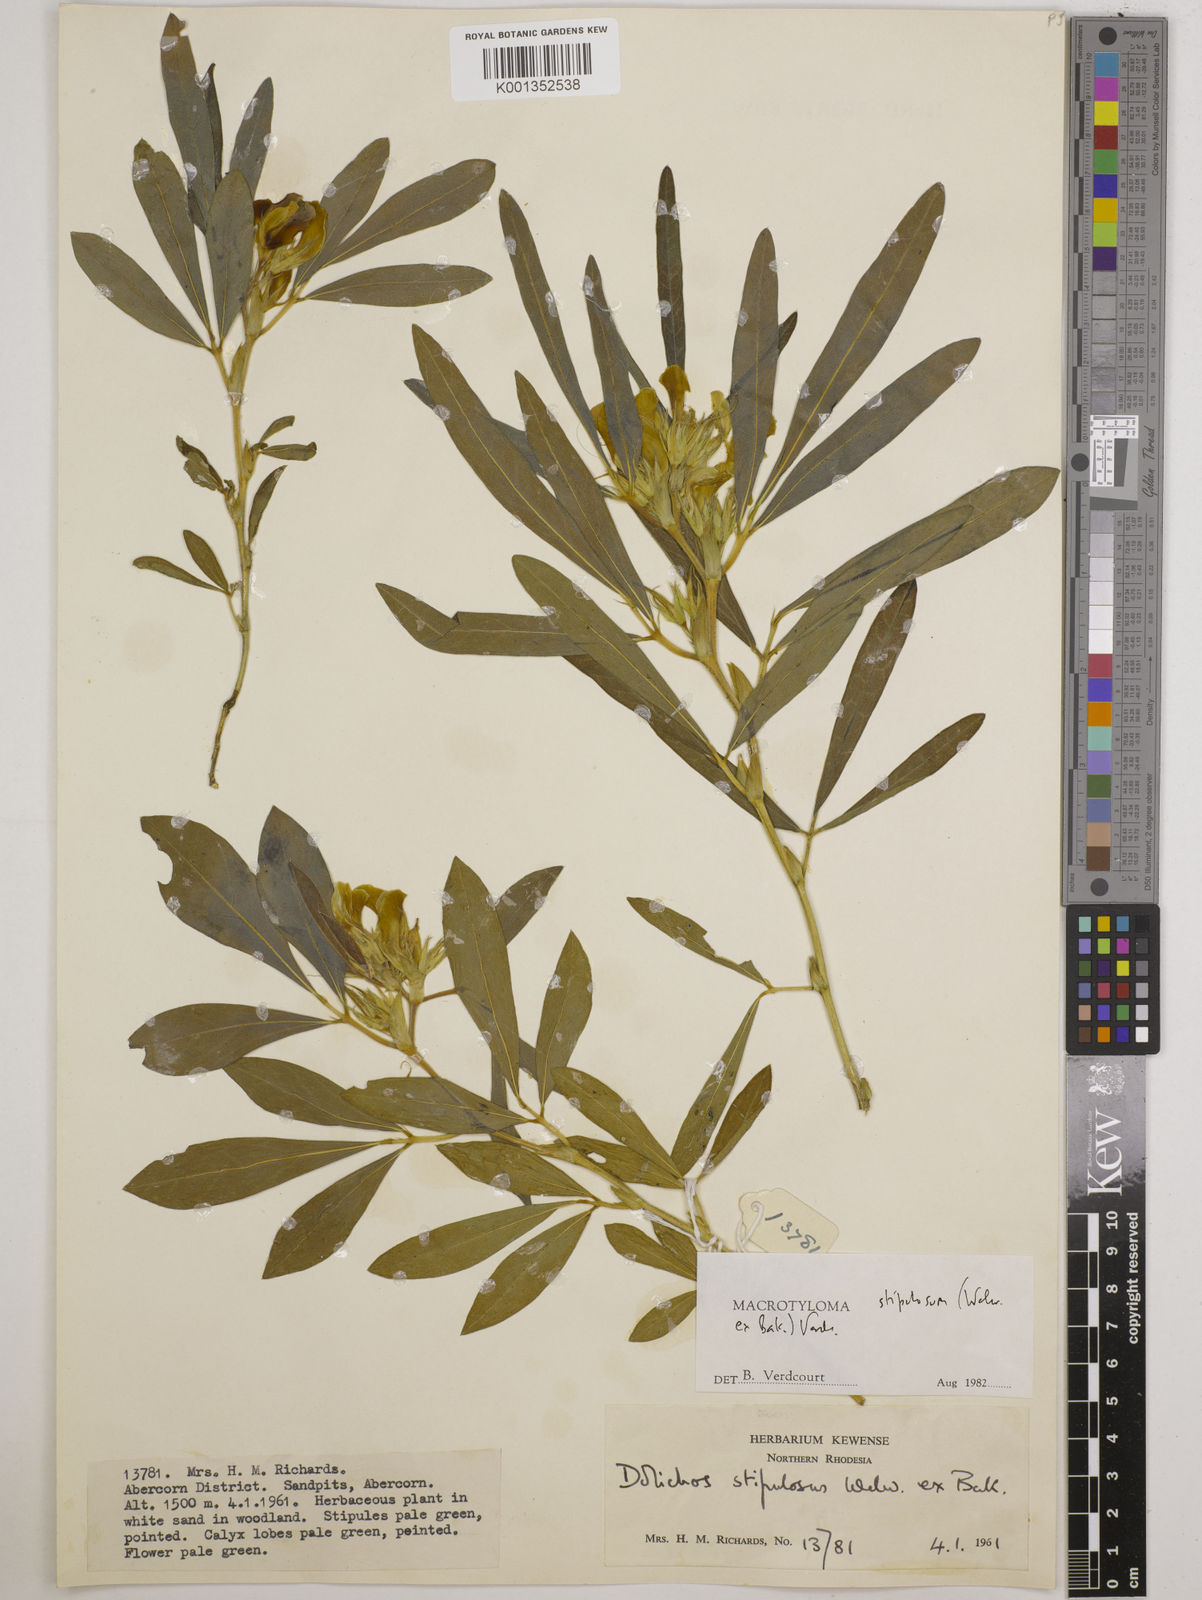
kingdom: Plantae
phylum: Tracheophyta
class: Magnoliopsida
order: Fabales
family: Fabaceae
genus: Macrotyloma
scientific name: Macrotyloma stipulosum
